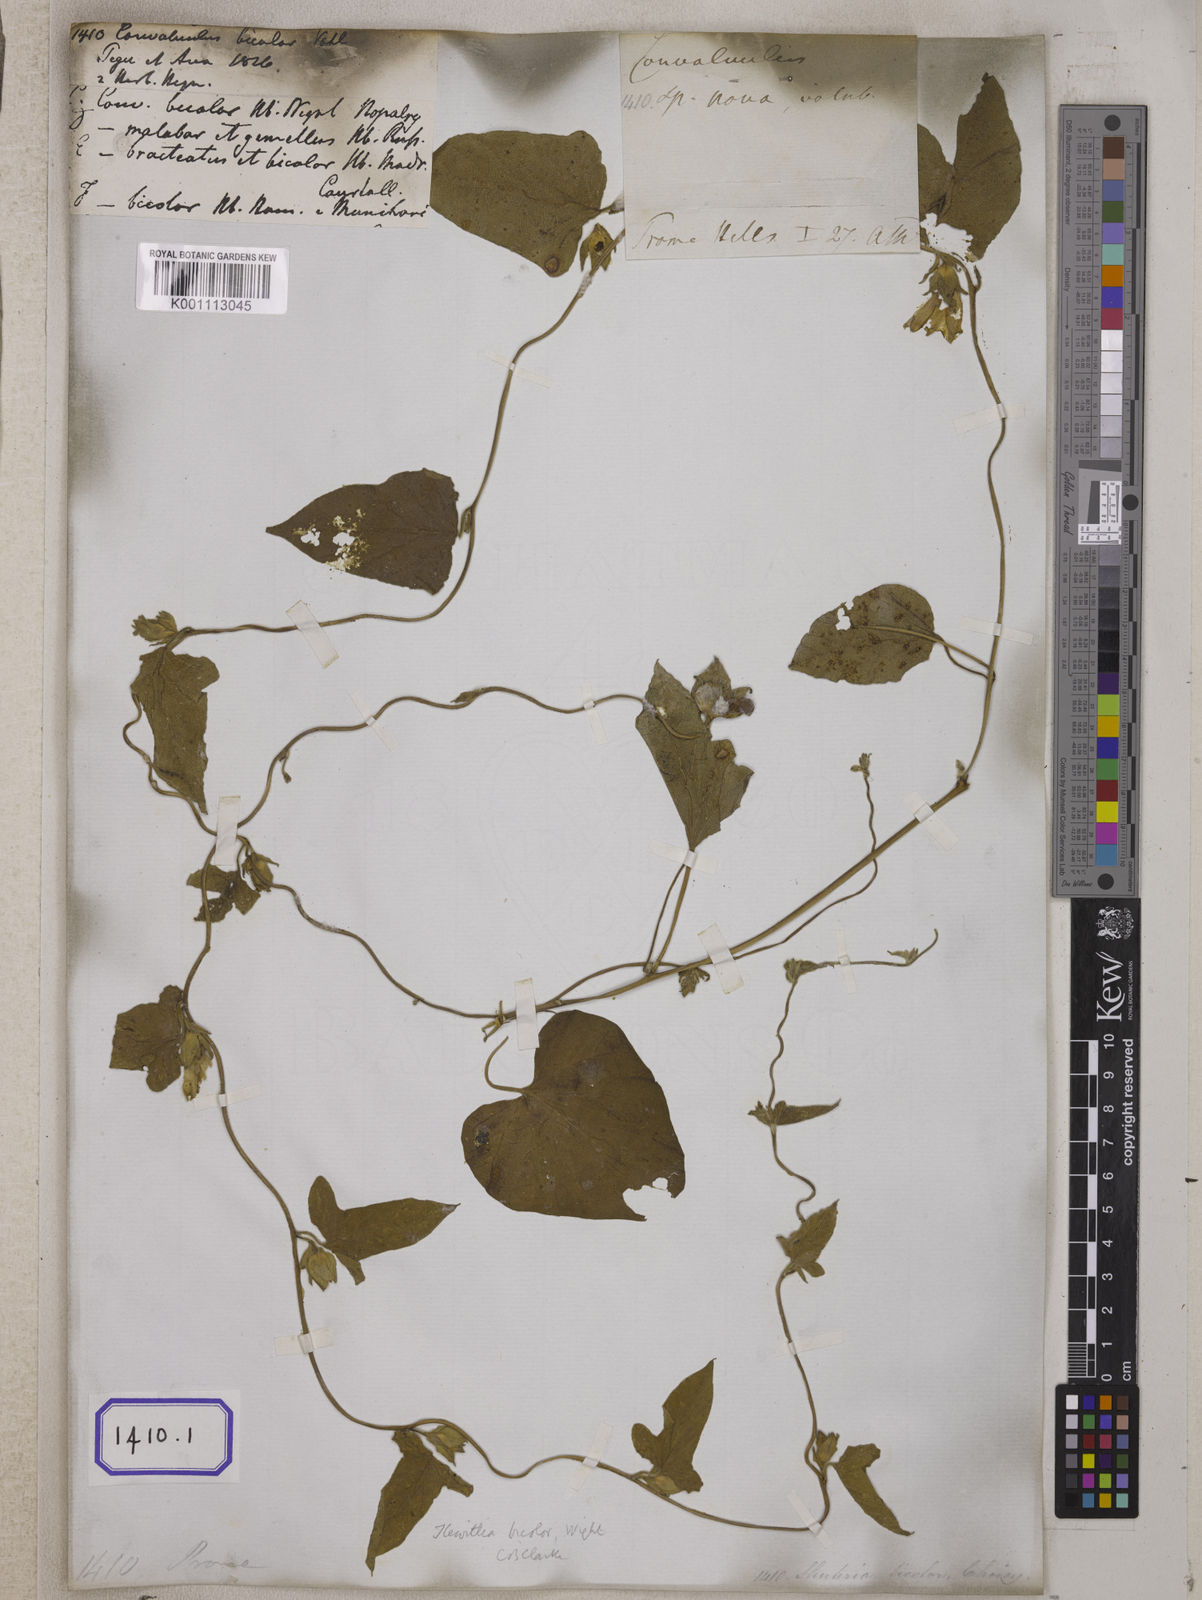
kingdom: Plantae
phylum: Tracheophyta
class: Magnoliopsida
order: Solanales
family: Convolvulaceae
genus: Convolvulus
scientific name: Convolvulus
